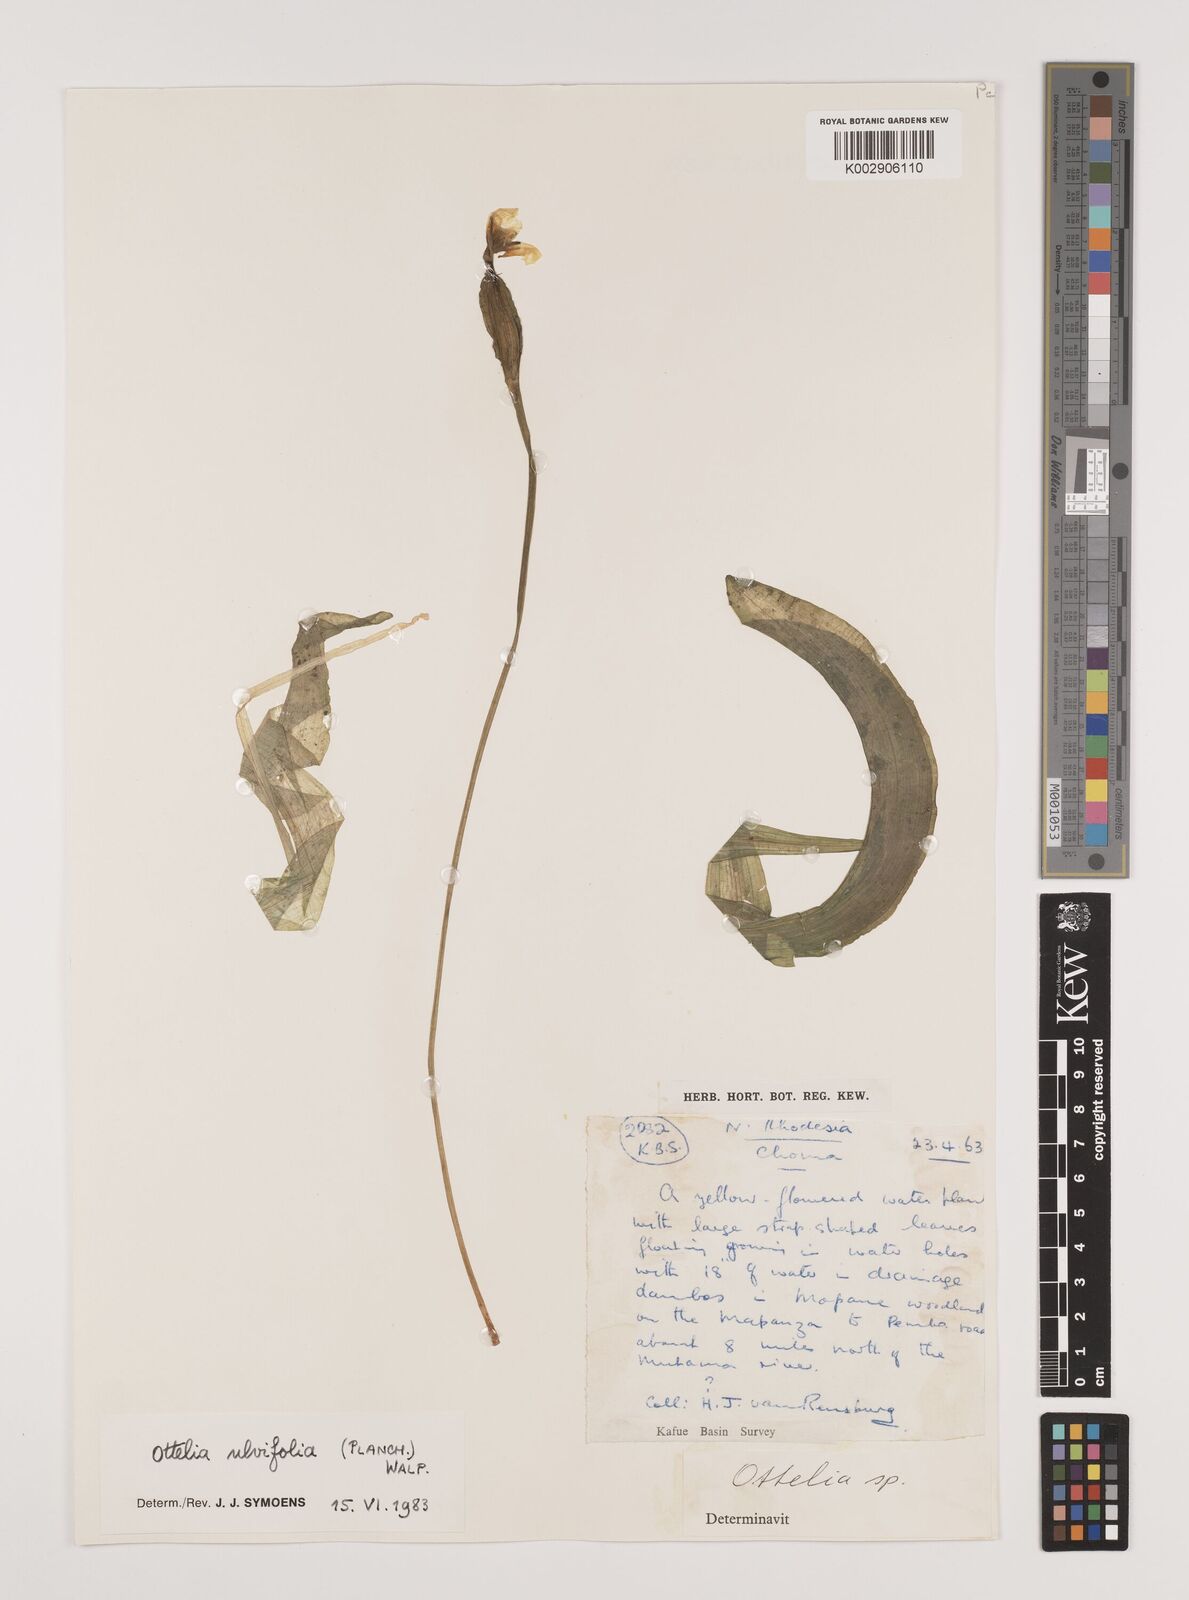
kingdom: Plantae
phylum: Tracheophyta
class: Liliopsida
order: Alismatales
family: Hydrocharitaceae
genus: Ottelia
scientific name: Ottelia ulvifolia
